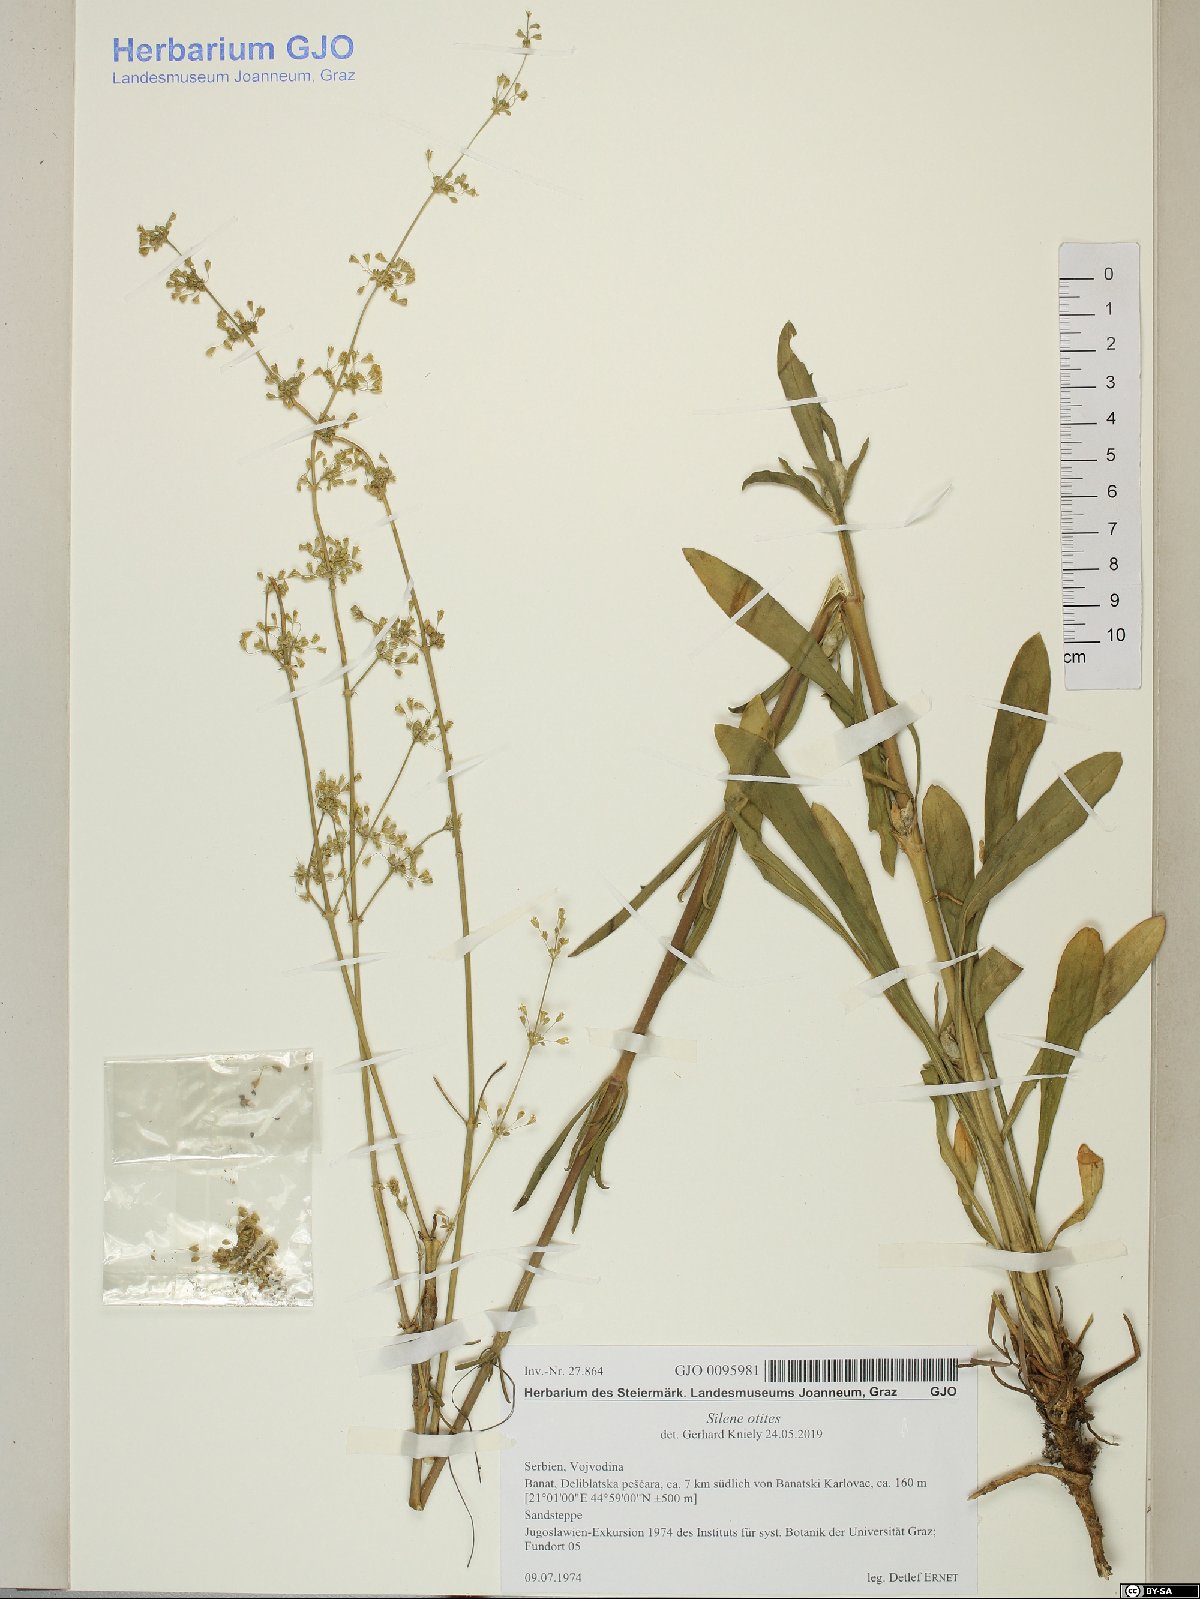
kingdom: Plantae
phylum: Tracheophyta
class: Magnoliopsida
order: Caryophyllales
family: Caryophyllaceae
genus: Silene
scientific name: Silene otites
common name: Spanish catchfly
